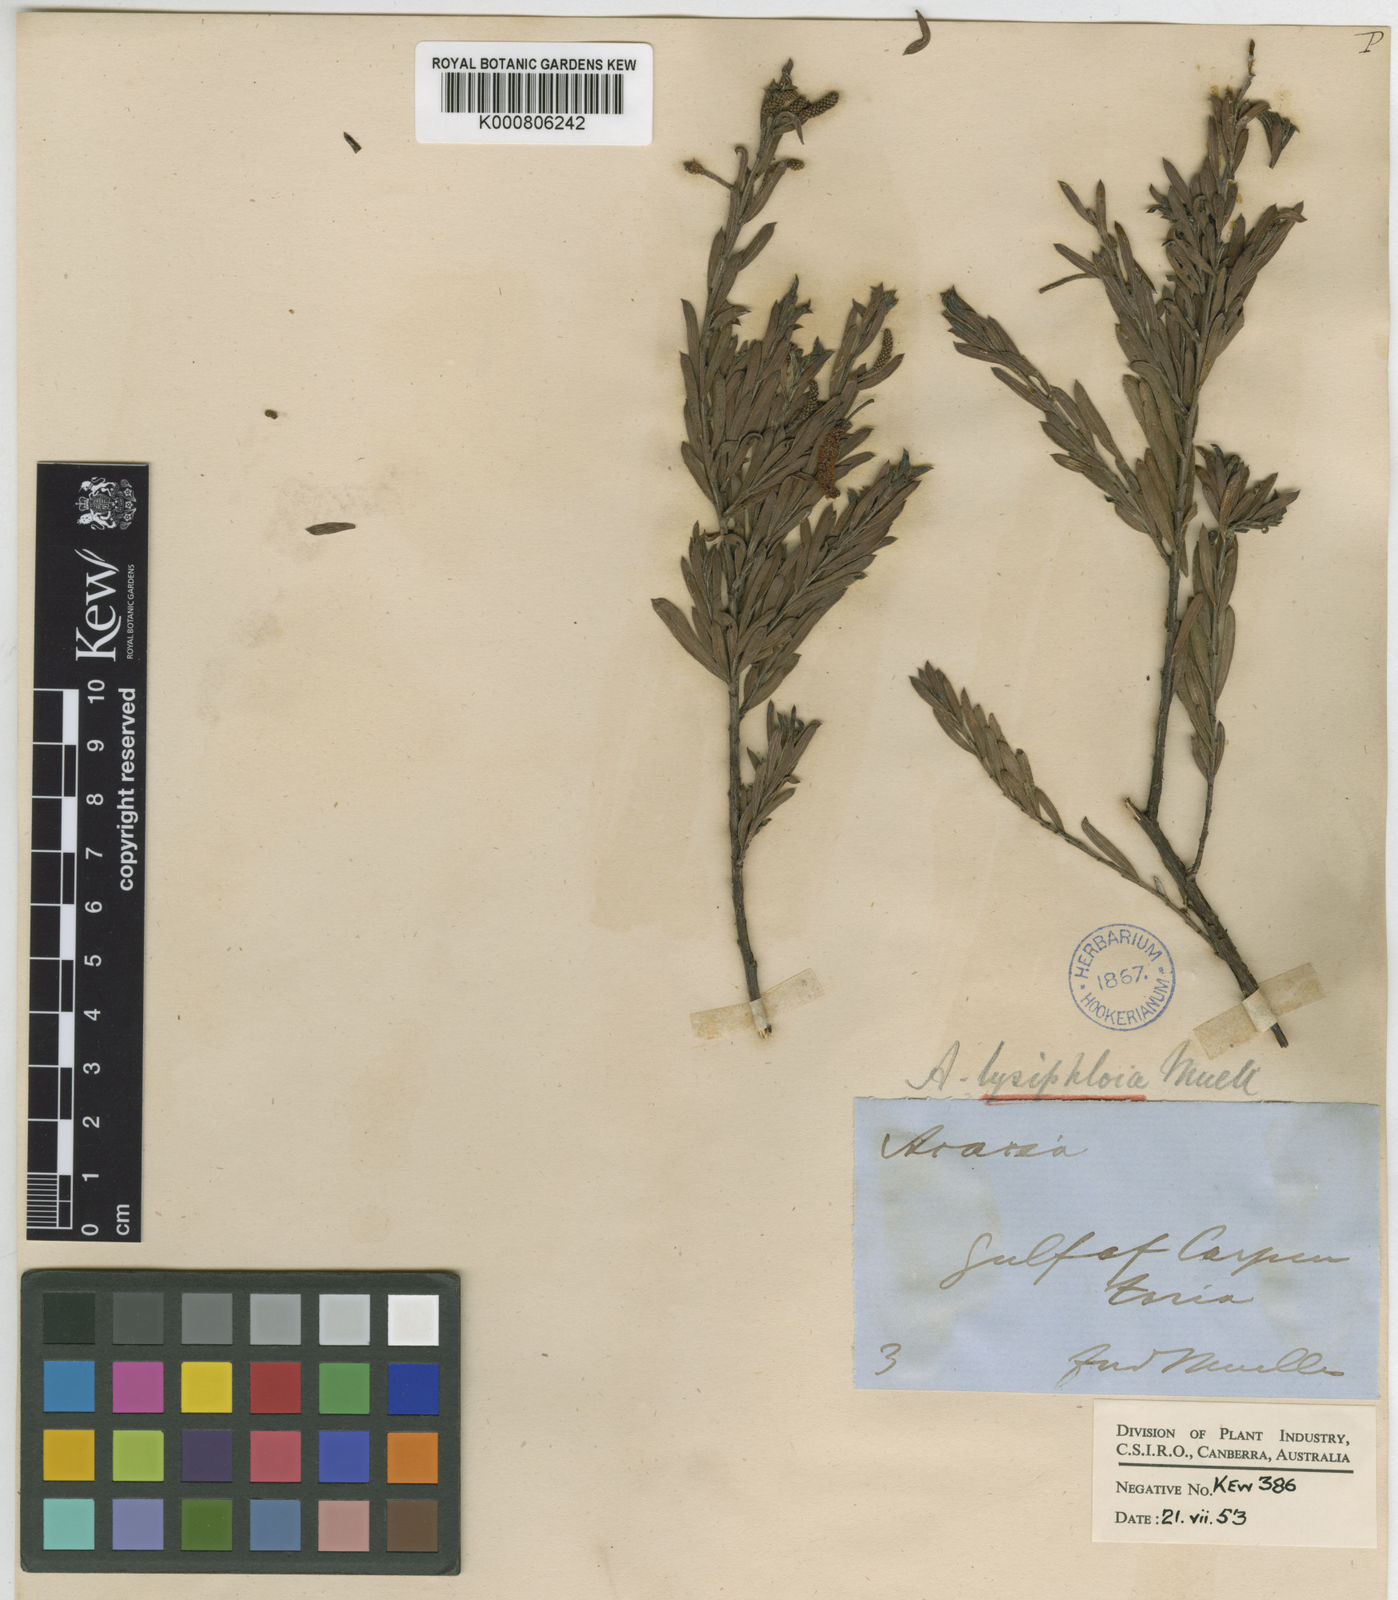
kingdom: Plantae
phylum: Tracheophyta
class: Magnoliopsida
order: Fabales
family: Fabaceae
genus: Acacia
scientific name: Acacia lysiphloia
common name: Acacia
